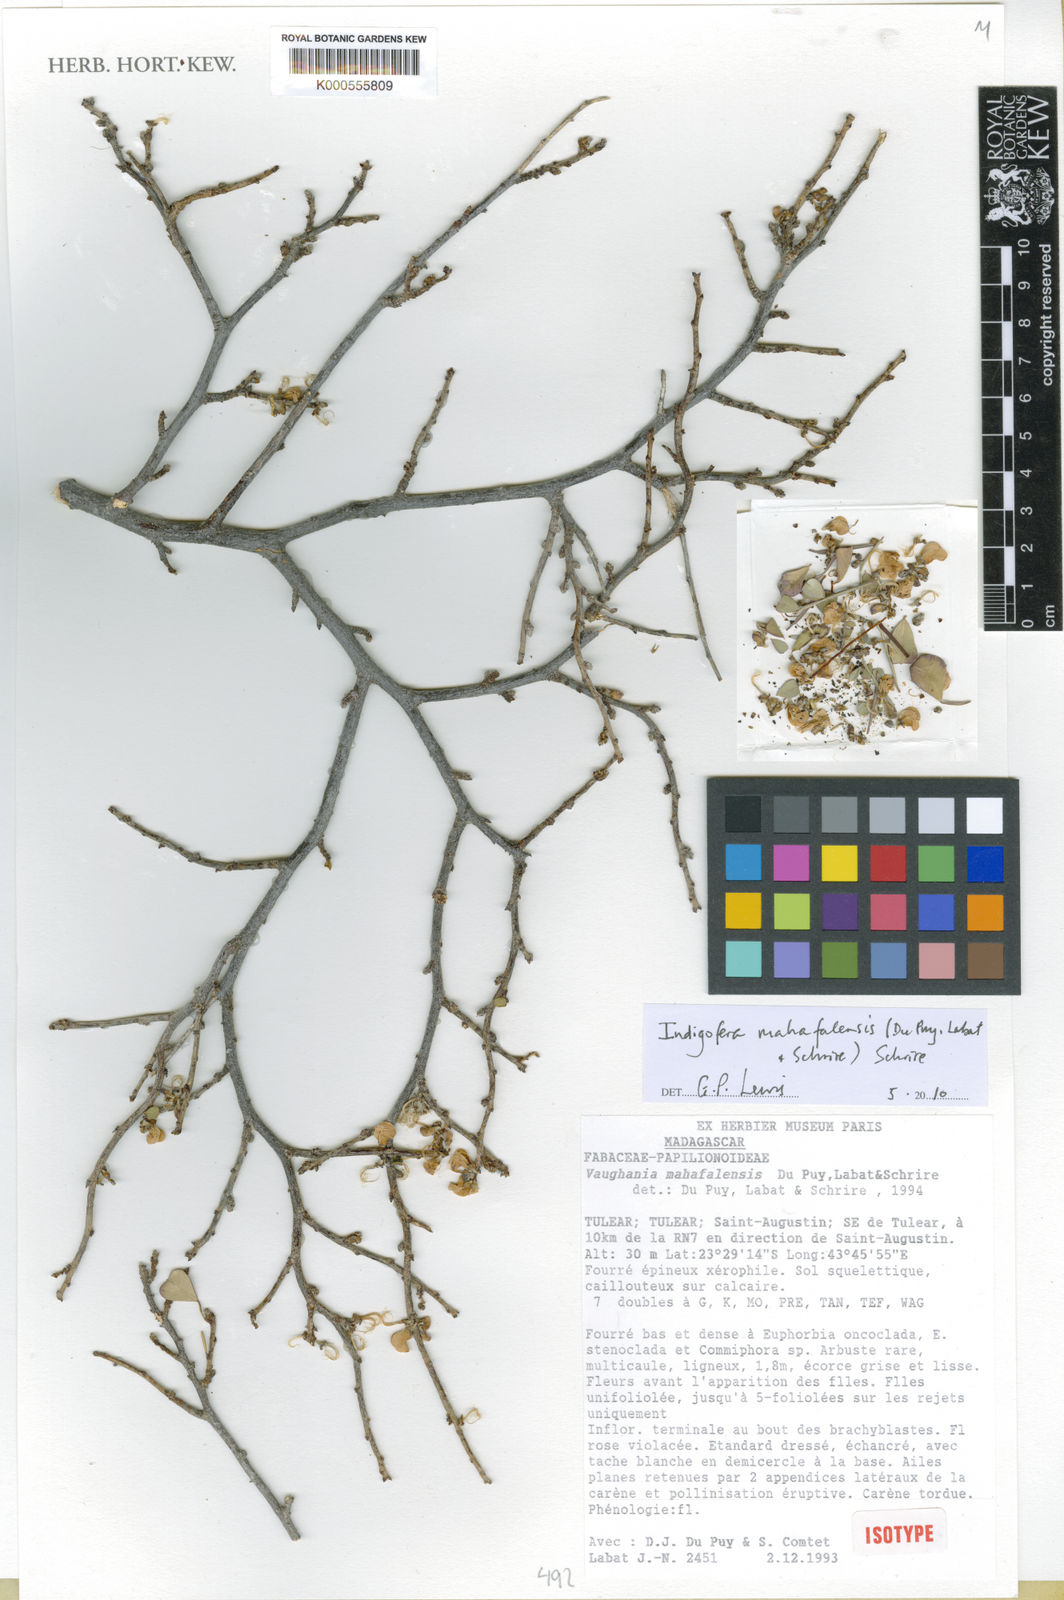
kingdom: Plantae
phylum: Tracheophyta
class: Magnoliopsida
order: Fabales
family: Fabaceae
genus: Indigofera
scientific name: Indigofera mahafalensis
